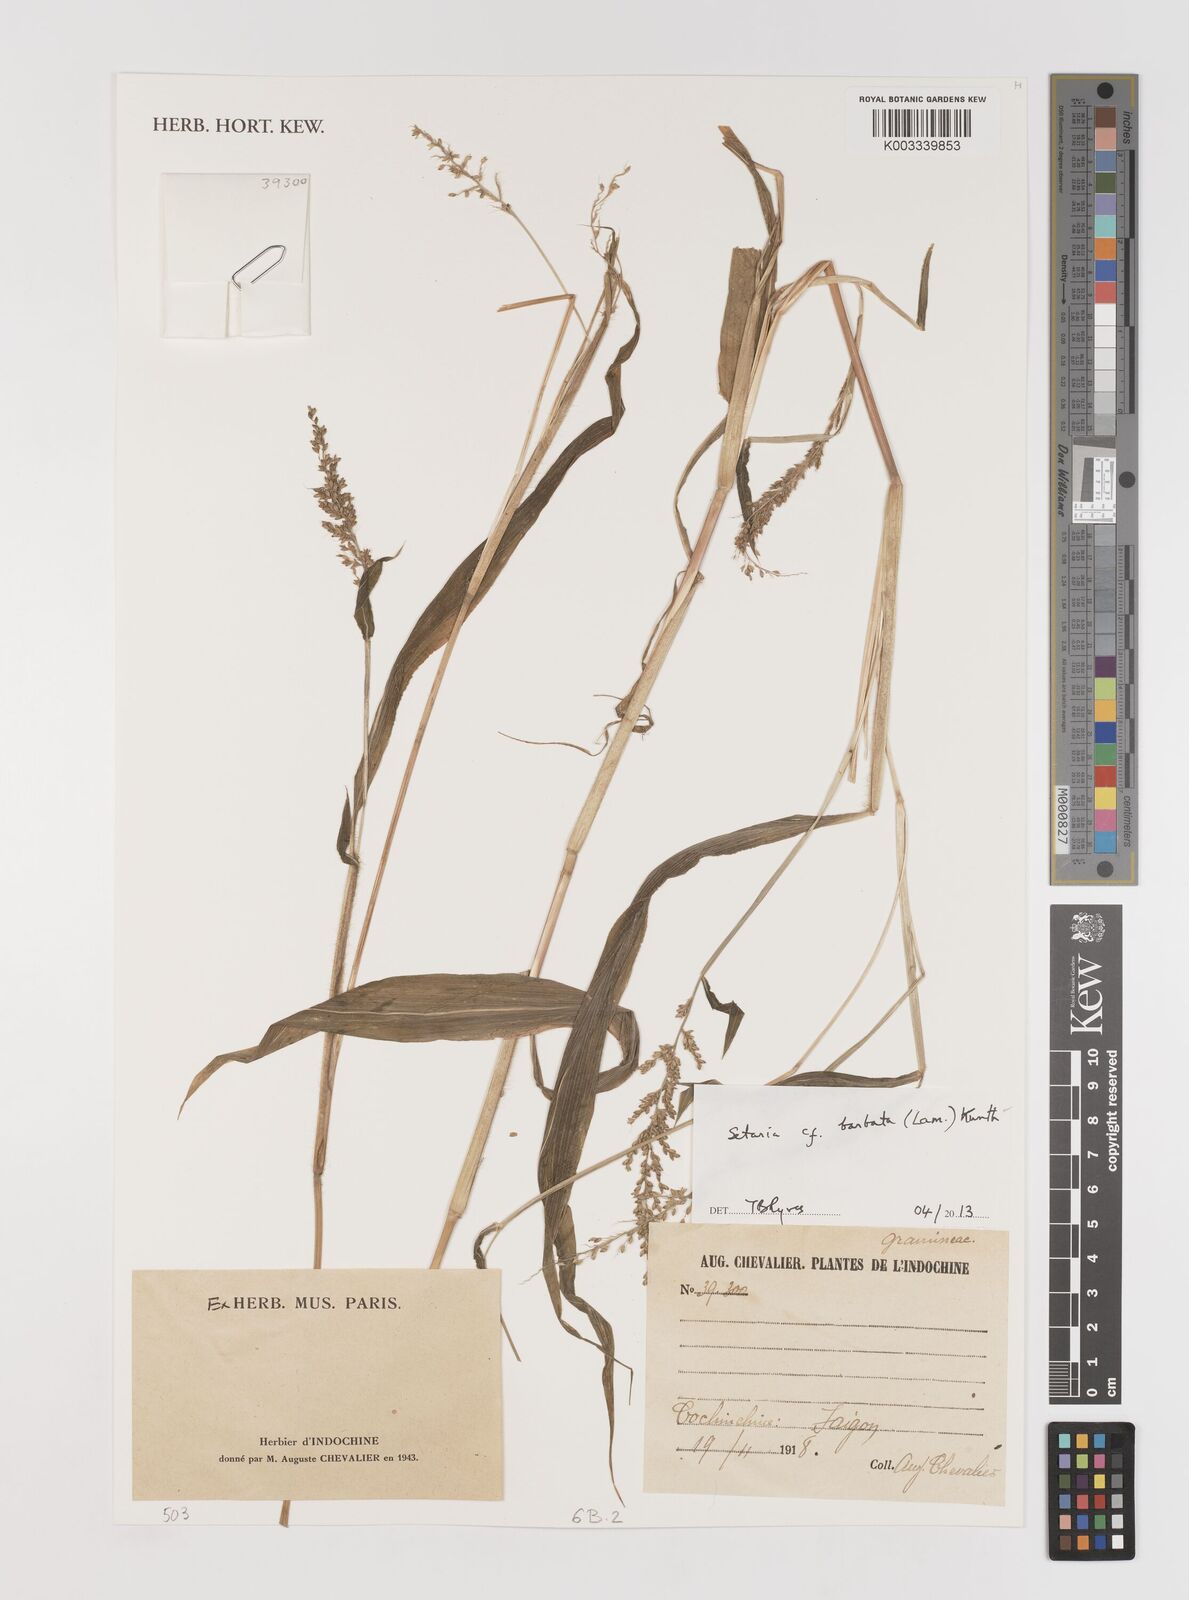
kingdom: Plantae
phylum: Tracheophyta
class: Liliopsida
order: Poales
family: Poaceae
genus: Setaria
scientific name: Setaria barbata
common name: East indian bristlegrass
